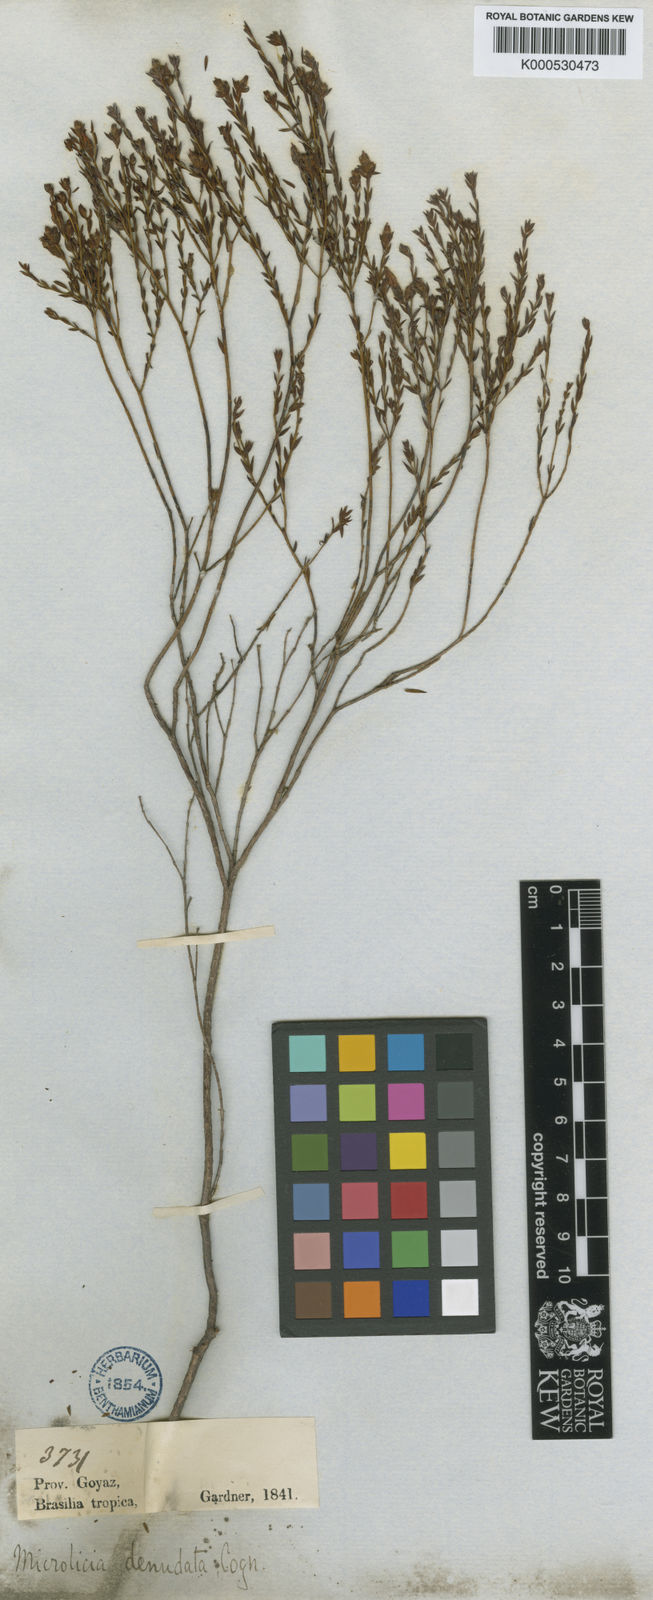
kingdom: Plantae
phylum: Tracheophyta
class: Magnoliopsida
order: Myrtales
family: Melastomataceae
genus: Microlicia
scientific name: Microlicia denudata
